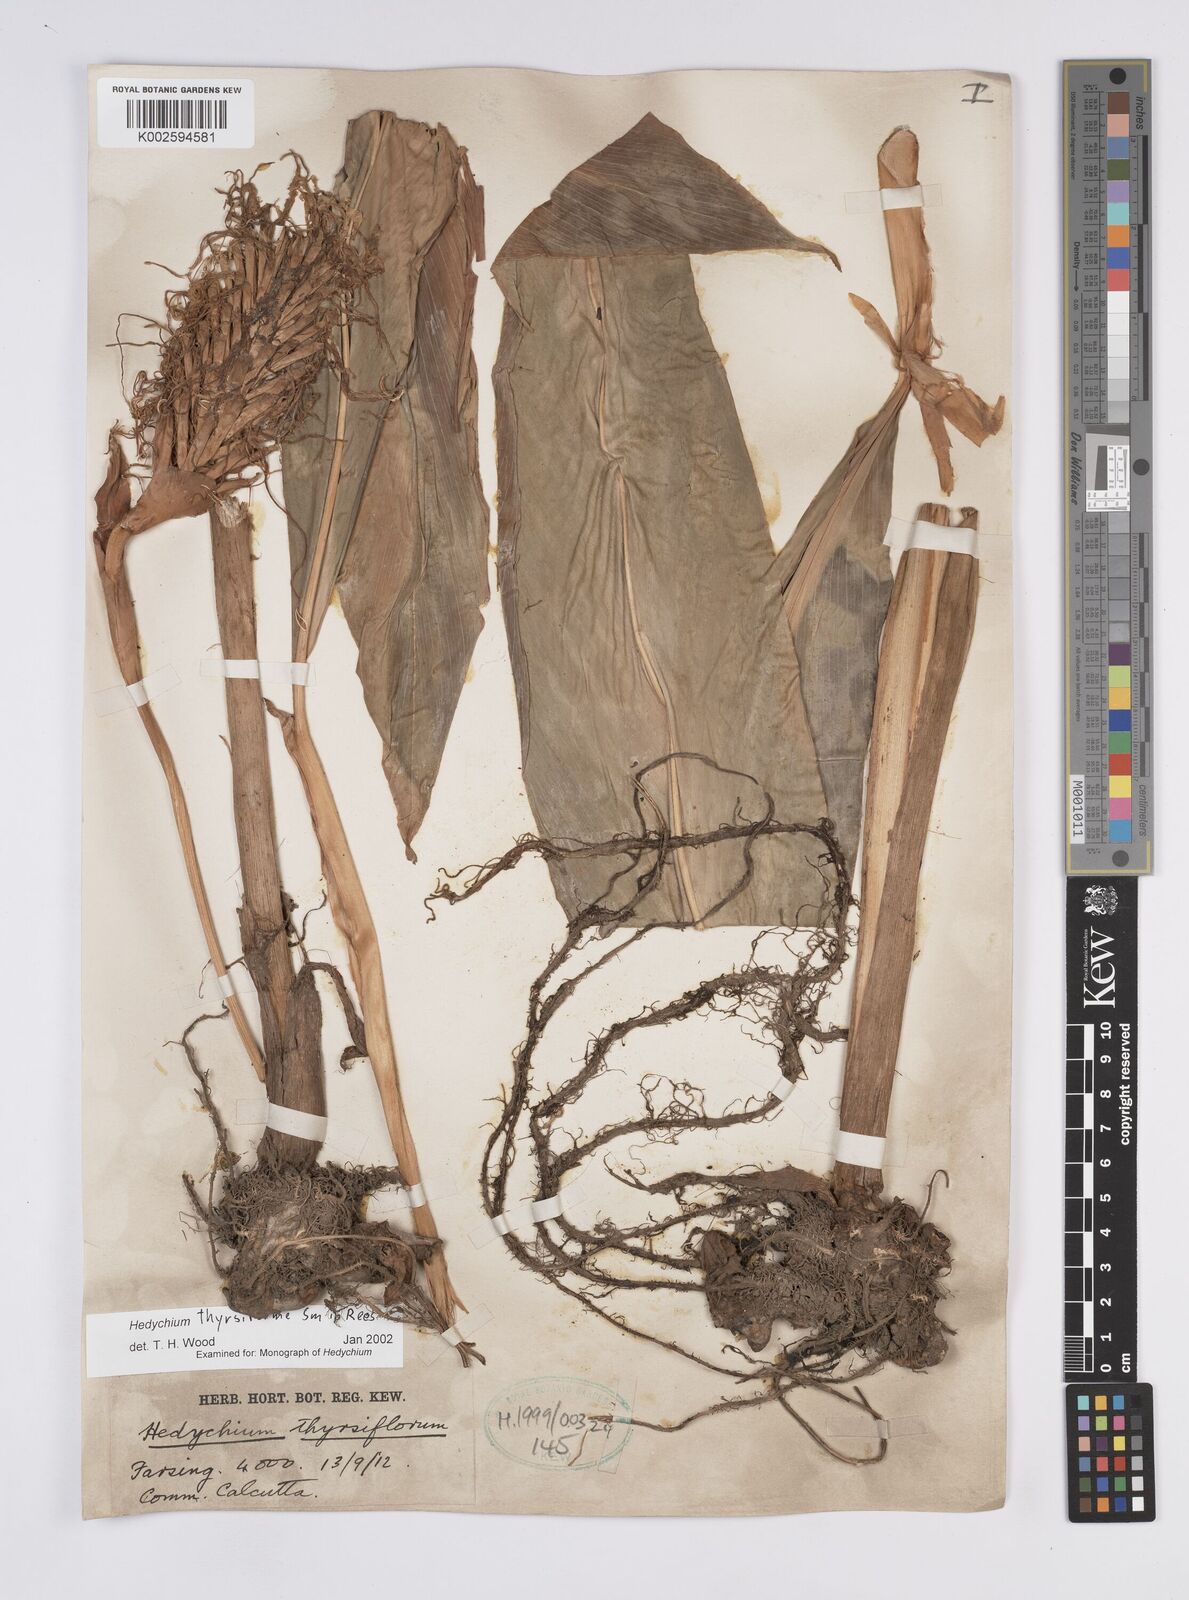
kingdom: Plantae
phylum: Tracheophyta
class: Liliopsida
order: Zingiberales
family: Zingiberaceae
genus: Hedychium
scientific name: Hedychium thyrsiforme
